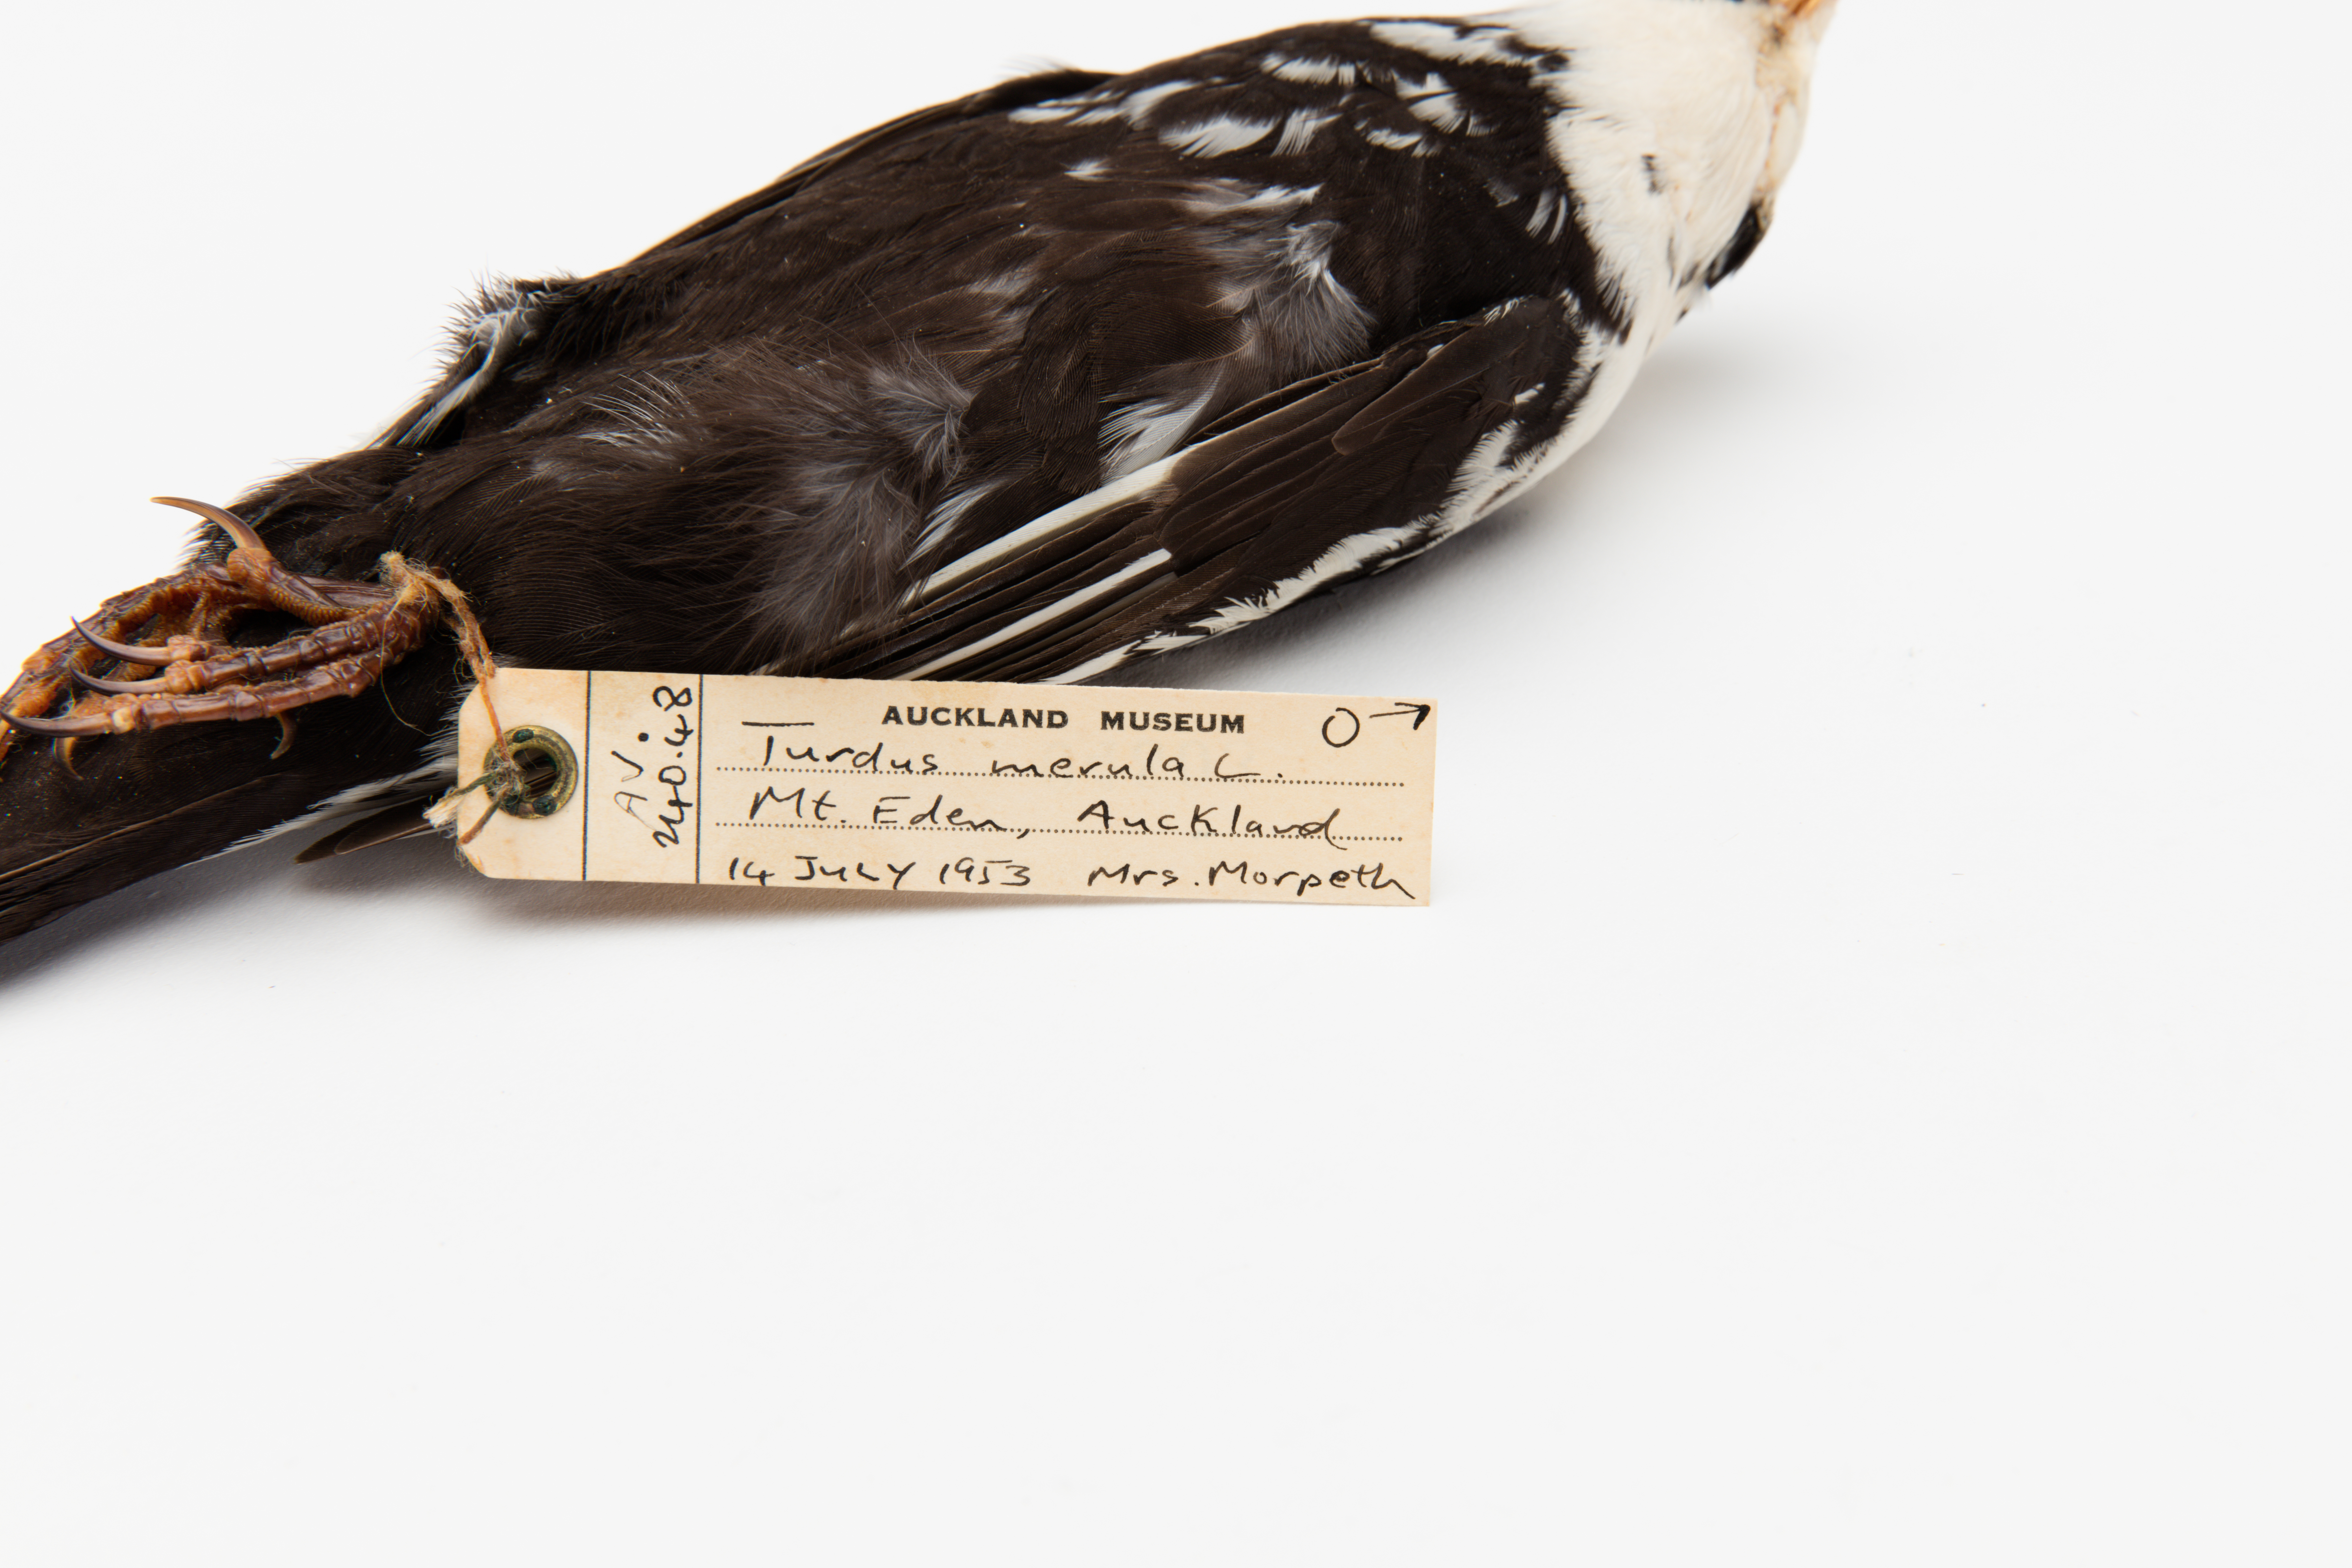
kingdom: Animalia
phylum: Chordata
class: Aves
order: Passeriformes
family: Turdidae
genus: Turdus
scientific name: Turdus merula
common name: Common blackbird
